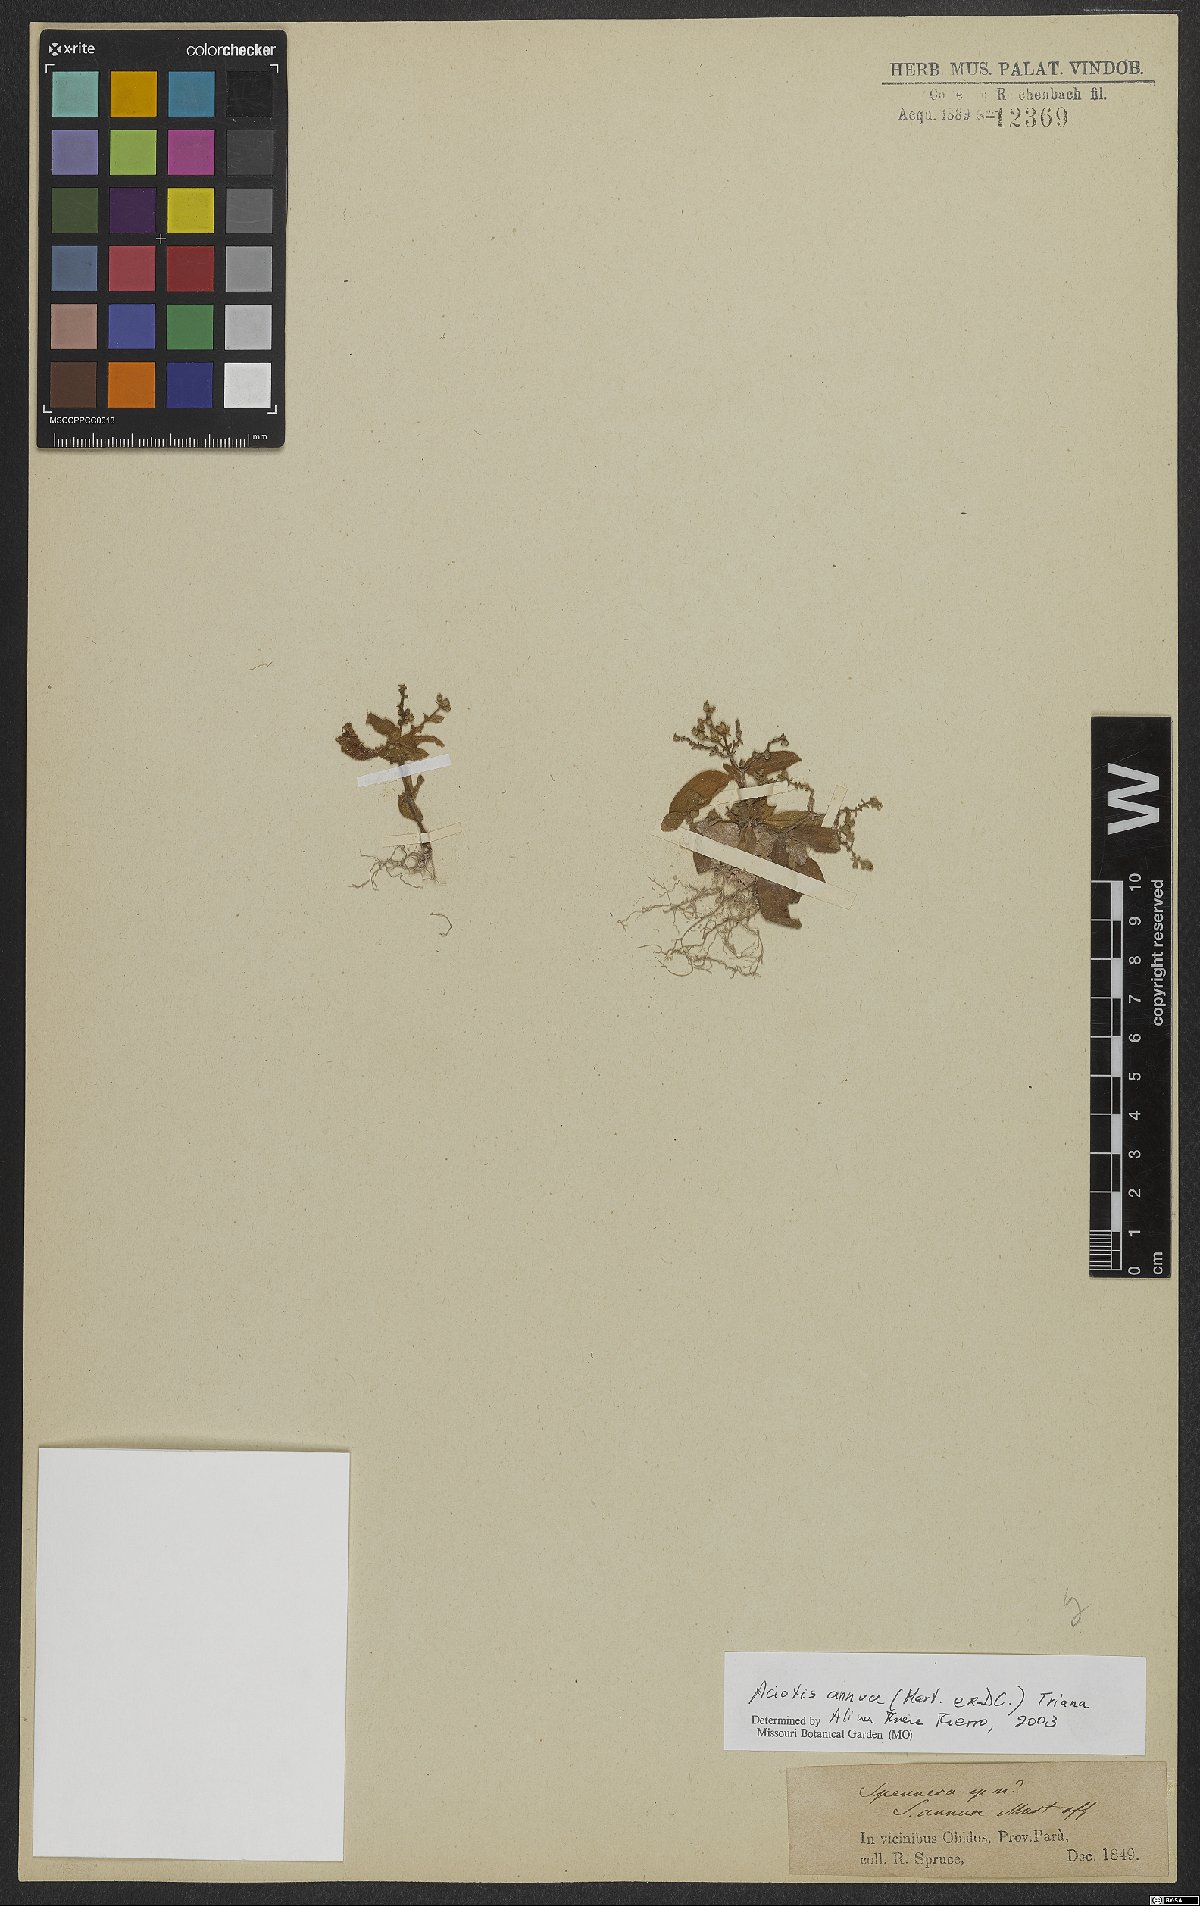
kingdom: Plantae
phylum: Tracheophyta
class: Magnoliopsida
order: Myrtales
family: Melastomataceae
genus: Aciotis
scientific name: Aciotis annua
